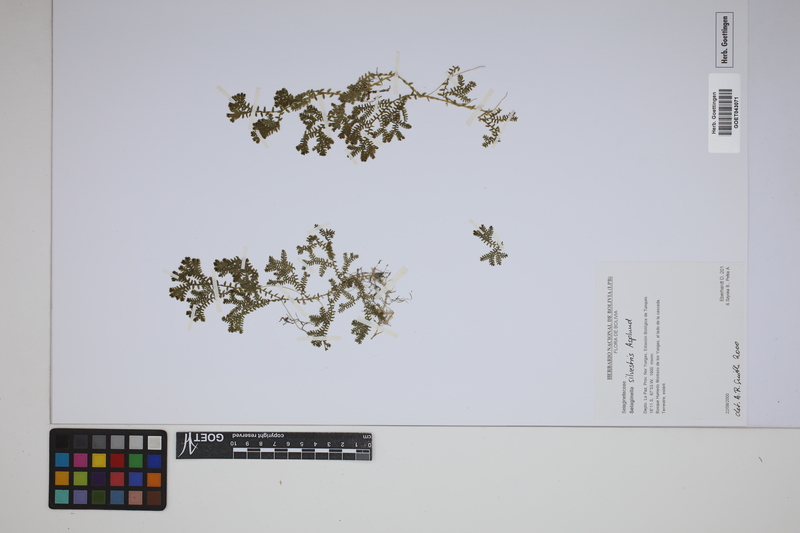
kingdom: Plantae
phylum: Tracheophyta
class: Lycopodiopsida
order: Selaginellales
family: Selaginellaceae
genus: Selaginella
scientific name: Selaginella silvestris
